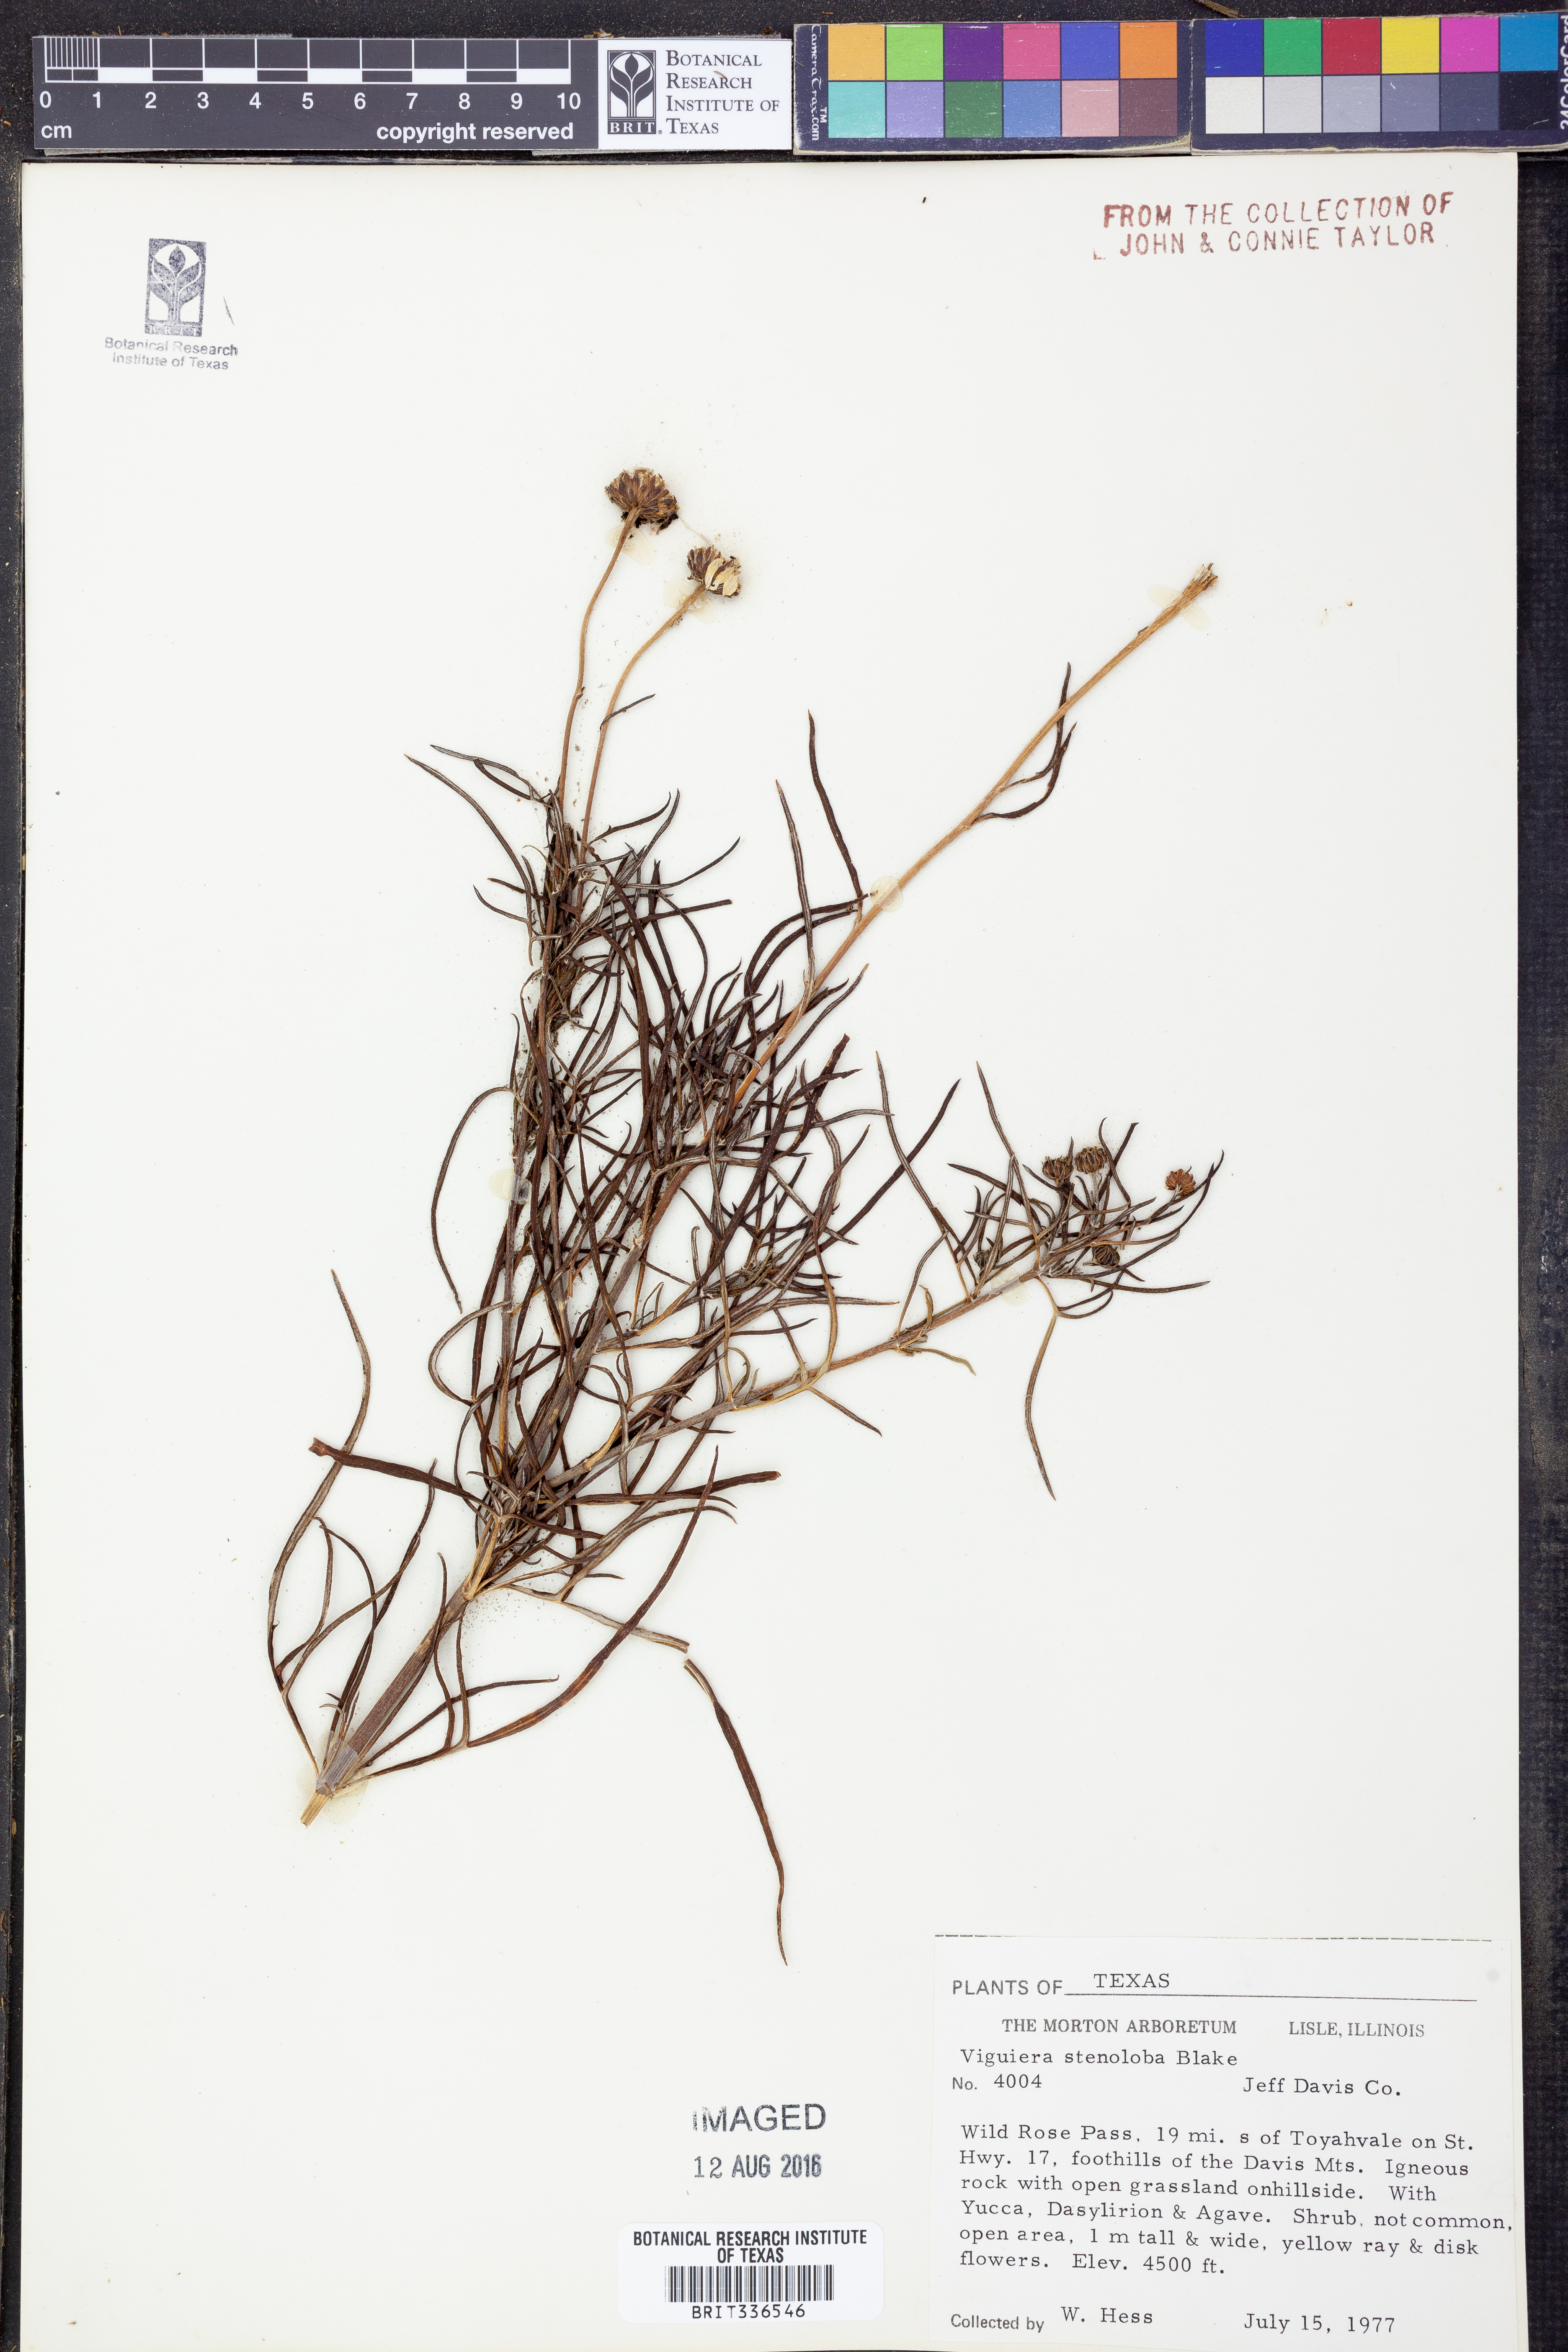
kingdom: Plantae
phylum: Tracheophyta
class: Magnoliopsida
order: Asterales
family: Asteraceae
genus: Sidneya
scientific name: Sidneya tenuifolia
